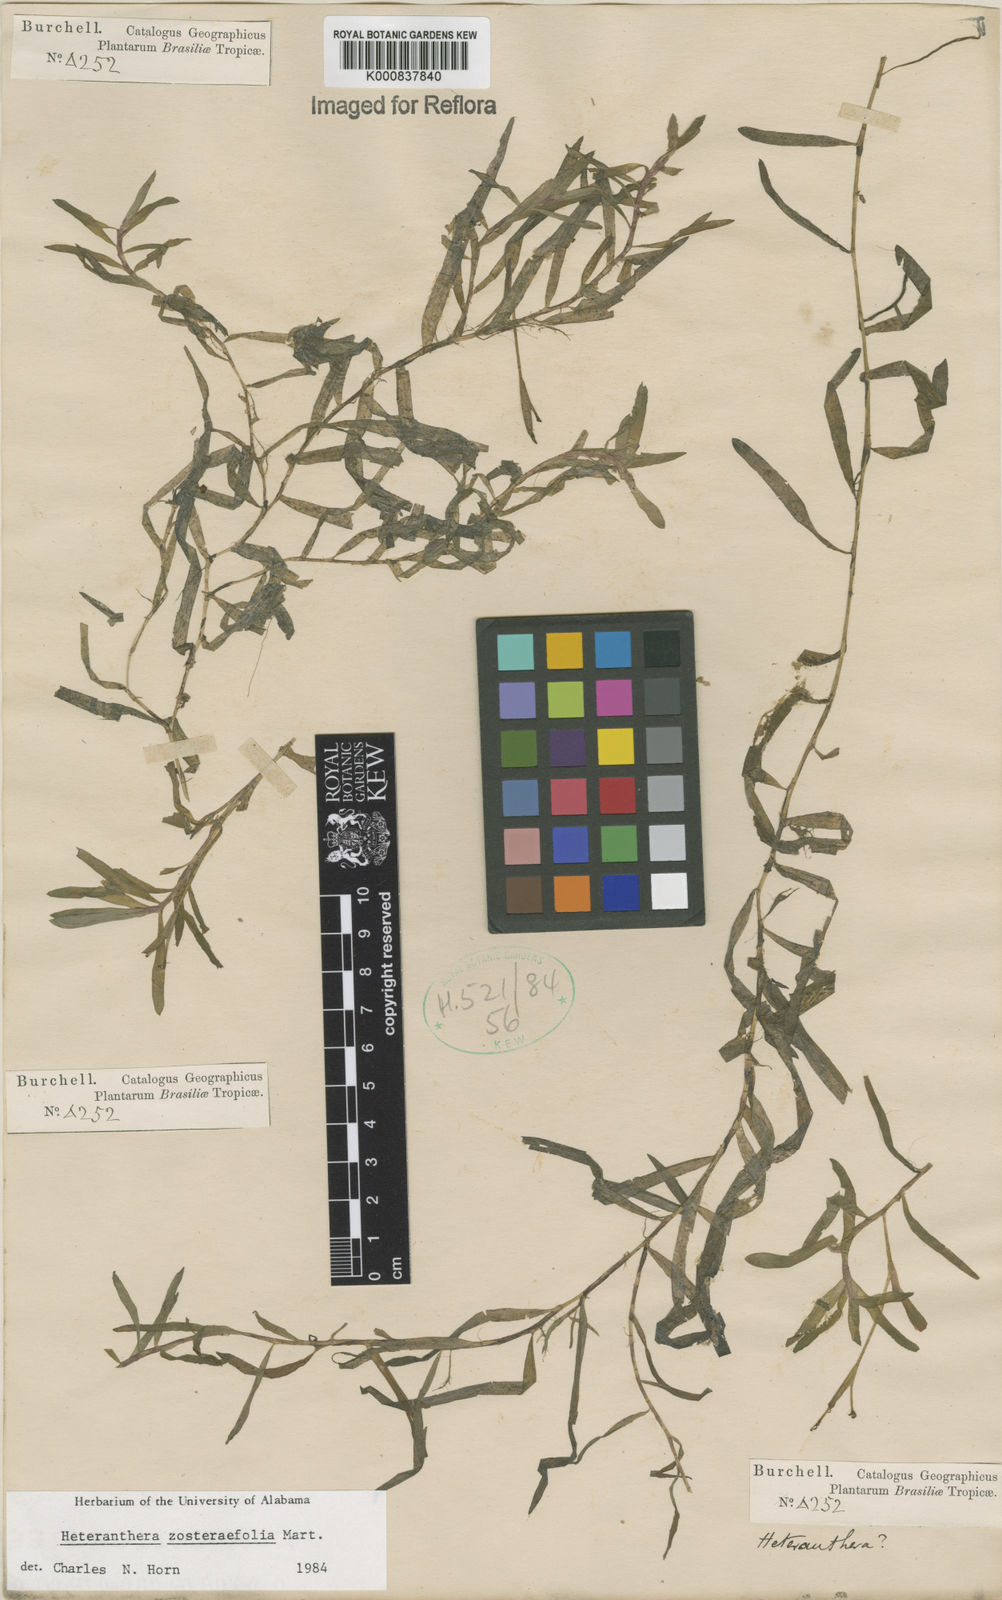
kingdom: Plantae
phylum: Tracheophyta
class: Liliopsida
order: Commelinales
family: Pontederiaceae
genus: Heteranthera
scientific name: Heteranthera zosterifolia
